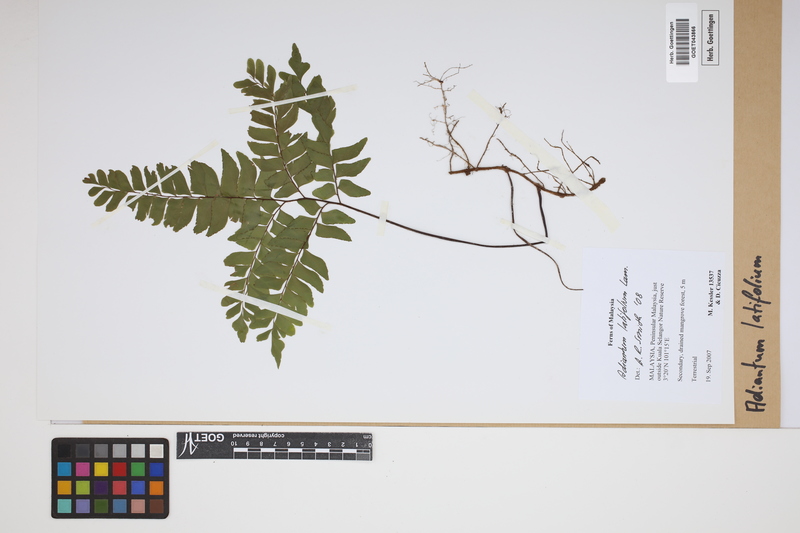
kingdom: Plantae
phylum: Tracheophyta
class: Polypodiopsida
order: Polypodiales
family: Pteridaceae
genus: Adiantum
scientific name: Adiantum latifolium
